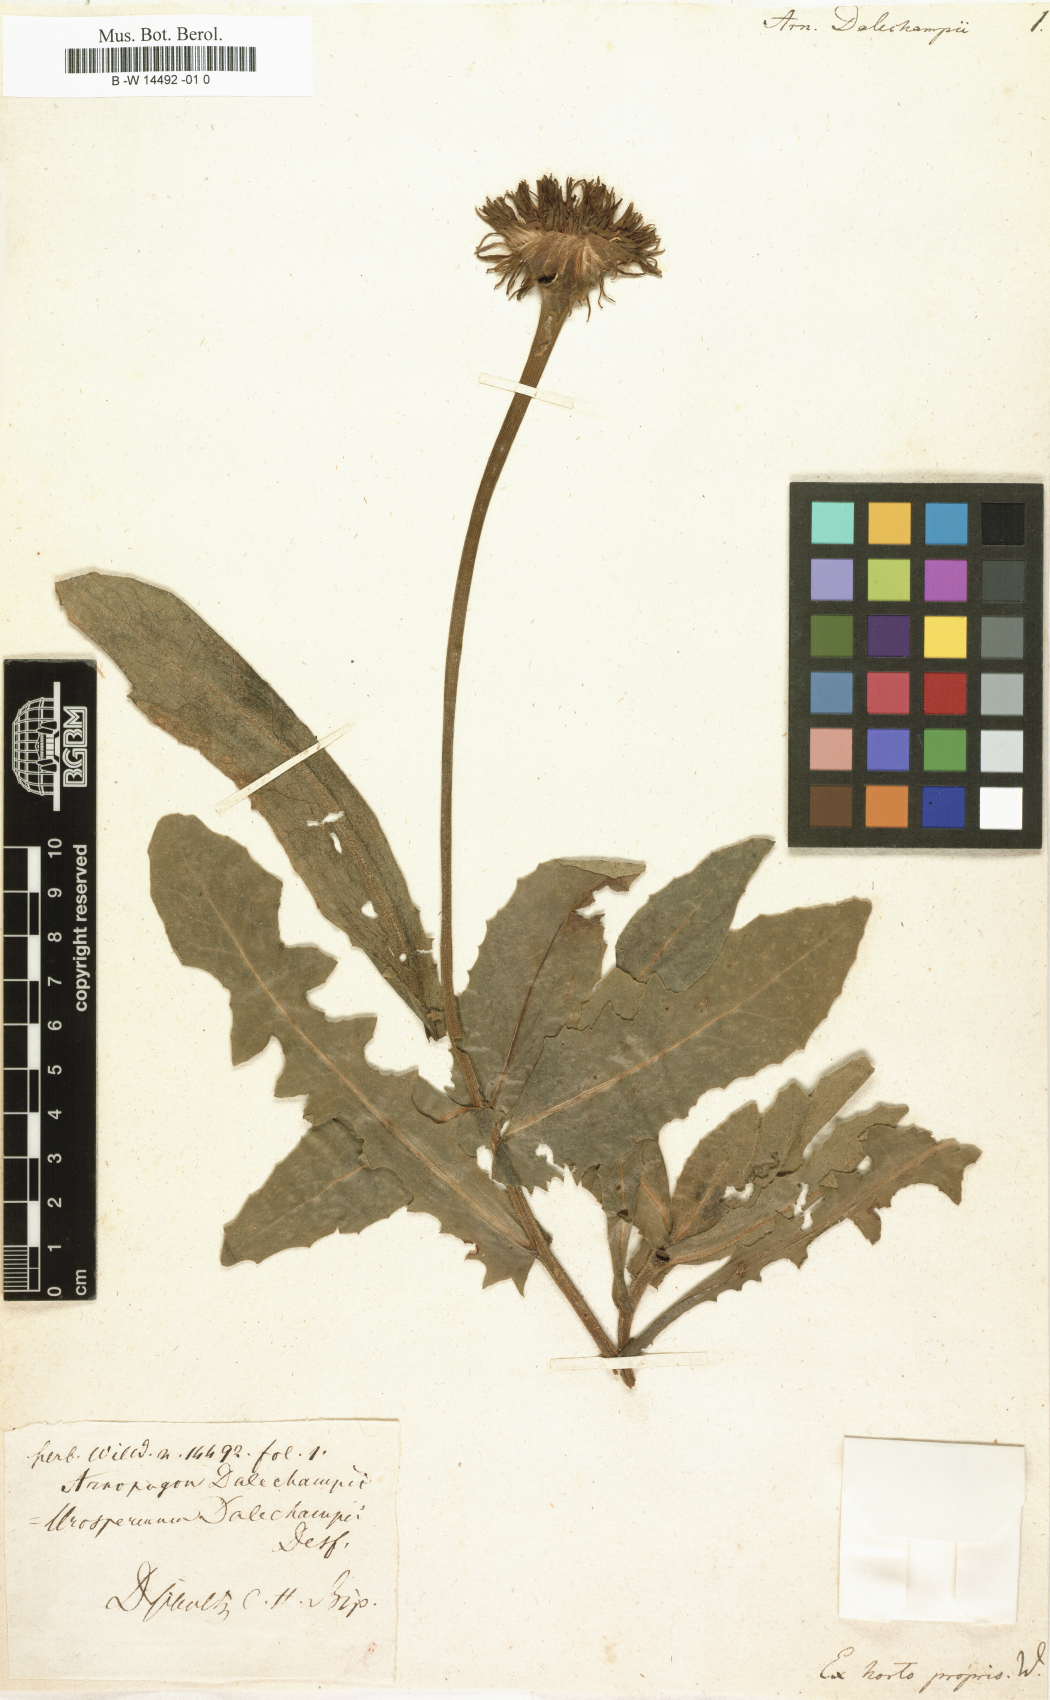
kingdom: Plantae
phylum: Tracheophyta
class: Magnoliopsida
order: Asterales
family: Asteraceae
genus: Urospermum
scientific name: Urospermum dalechampii
